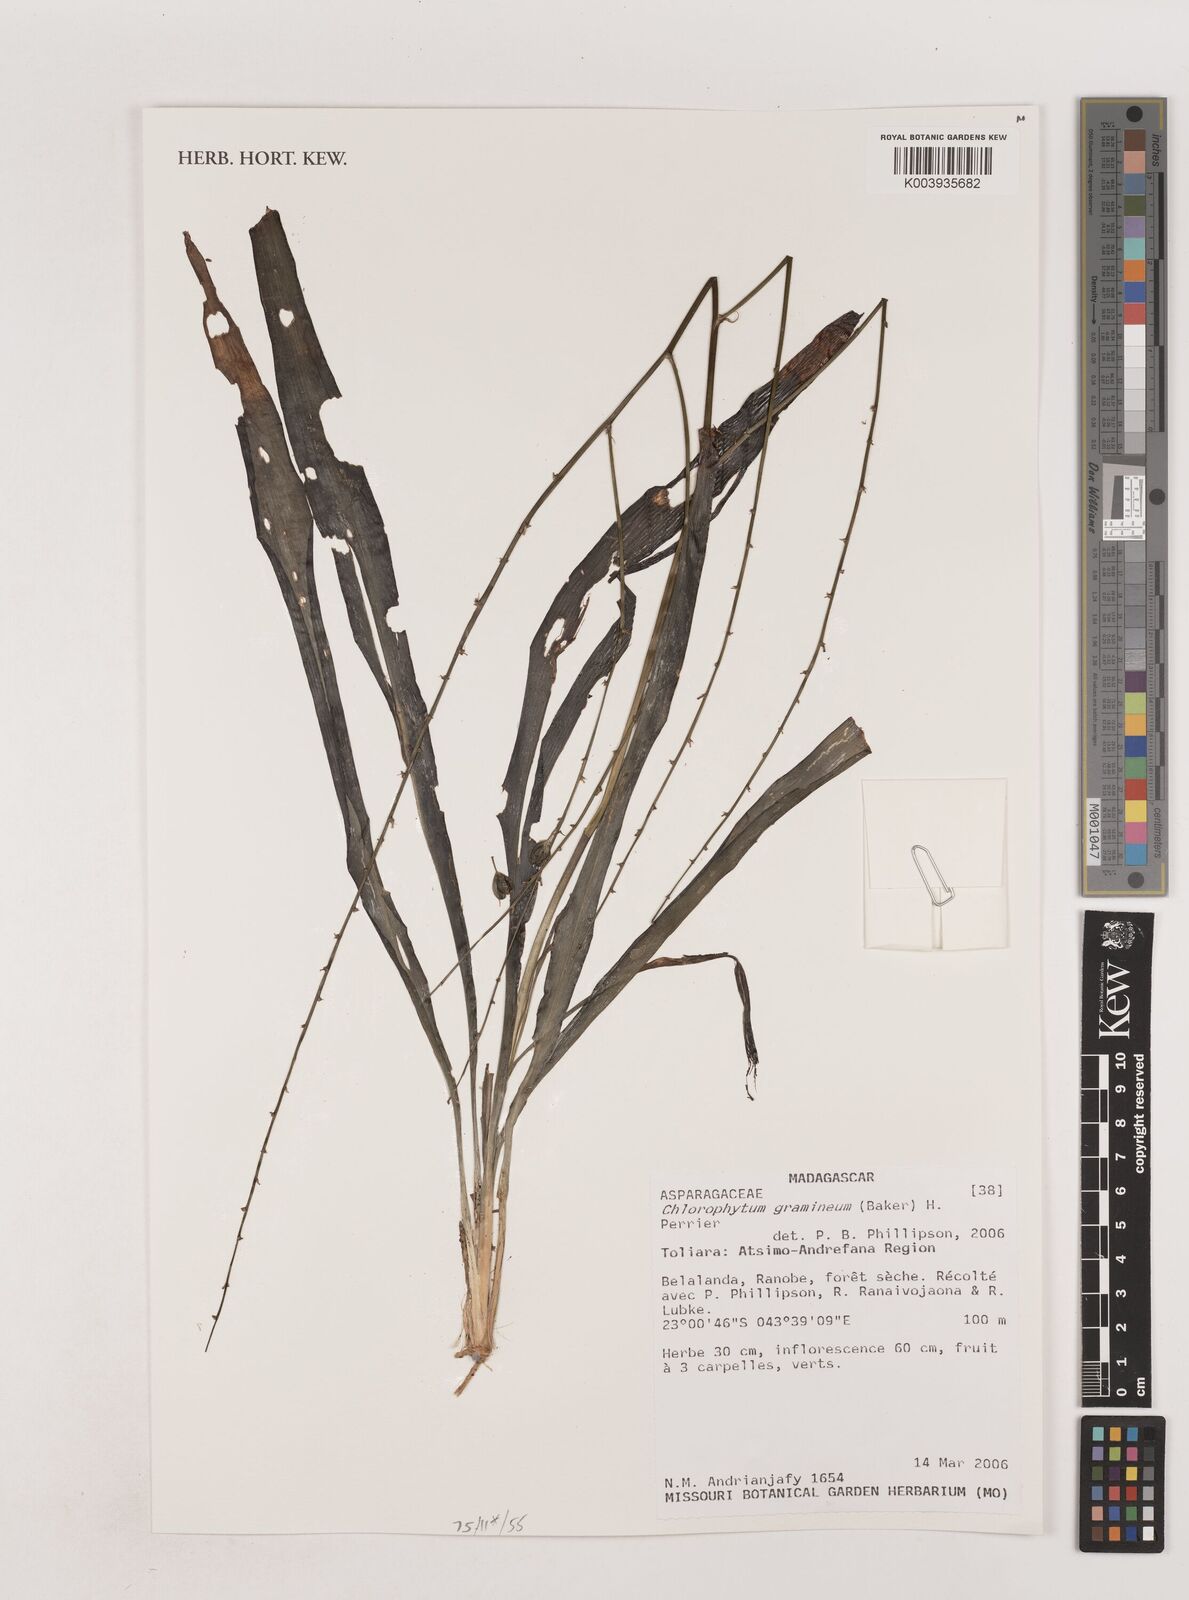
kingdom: Plantae
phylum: Tracheophyta
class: Liliopsida
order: Asparagales
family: Asparagaceae
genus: Chlorophytum
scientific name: Chlorophytum madagascariense
